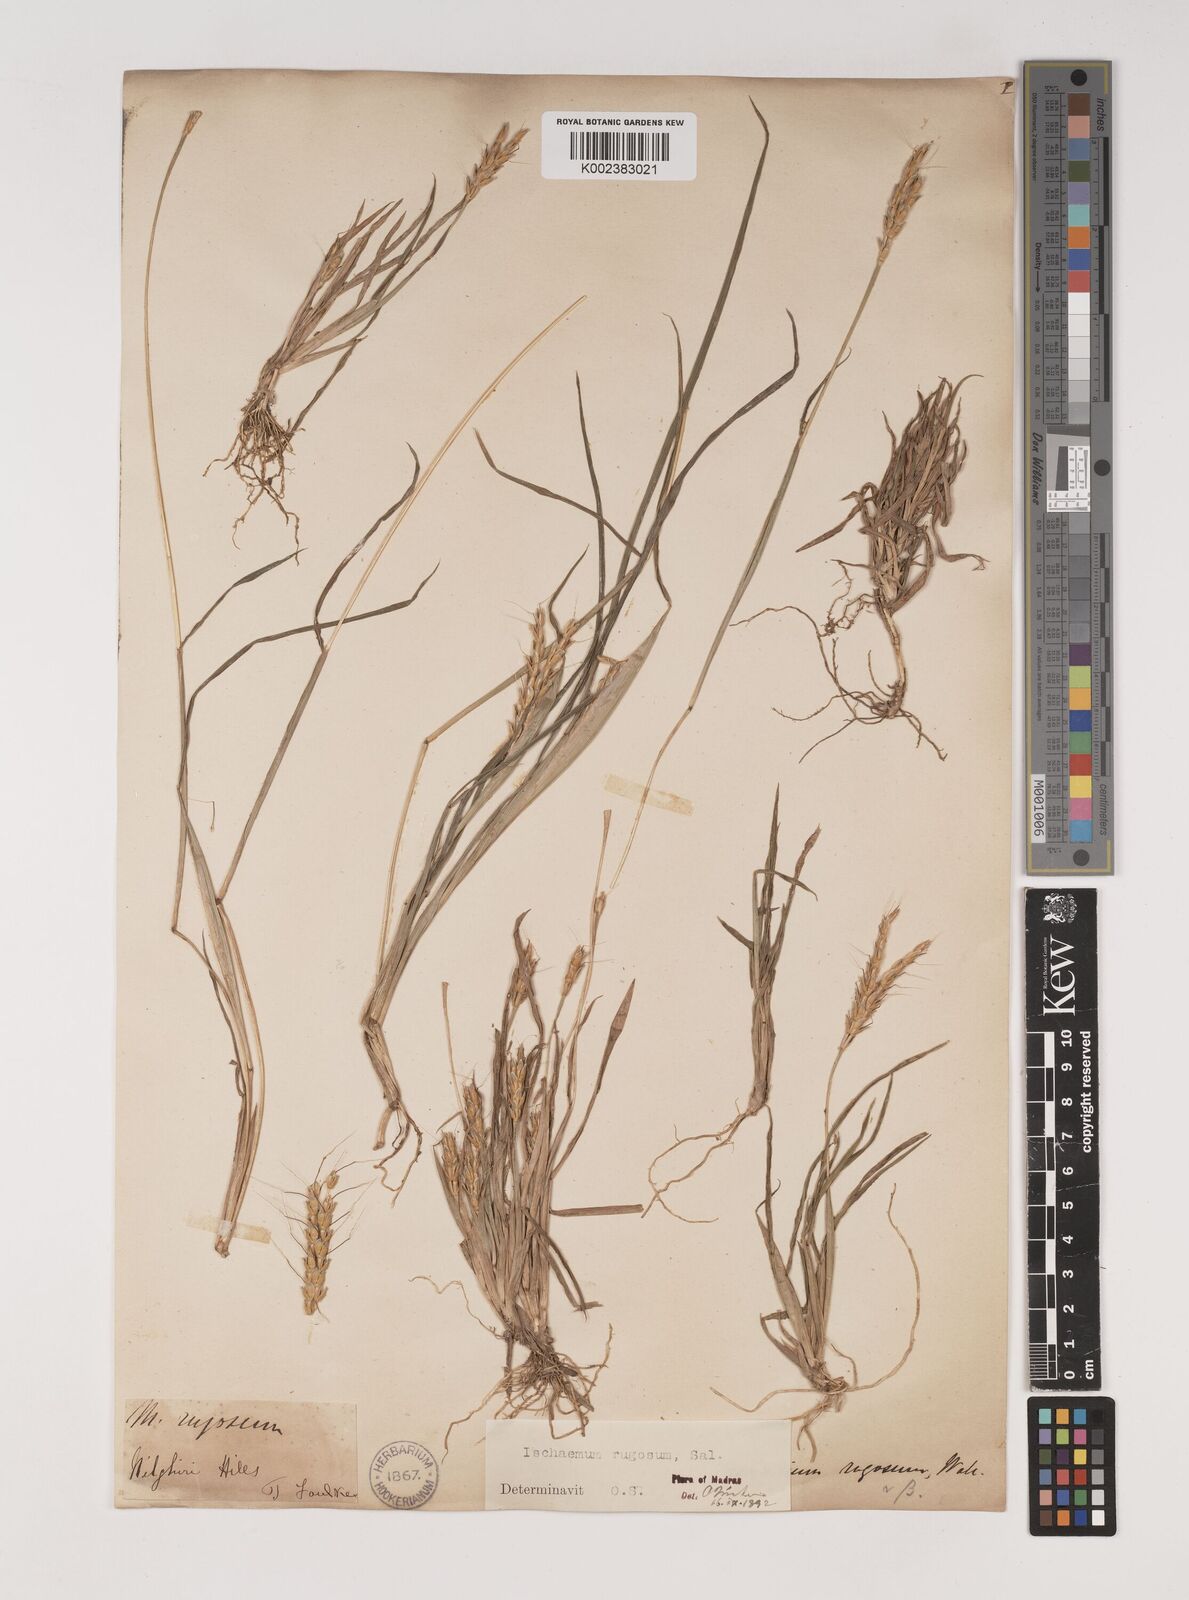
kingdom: Plantae
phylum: Tracheophyta
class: Liliopsida
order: Poales
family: Poaceae
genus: Ischaemum
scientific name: Ischaemum rugosum
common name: Saramatta grass
